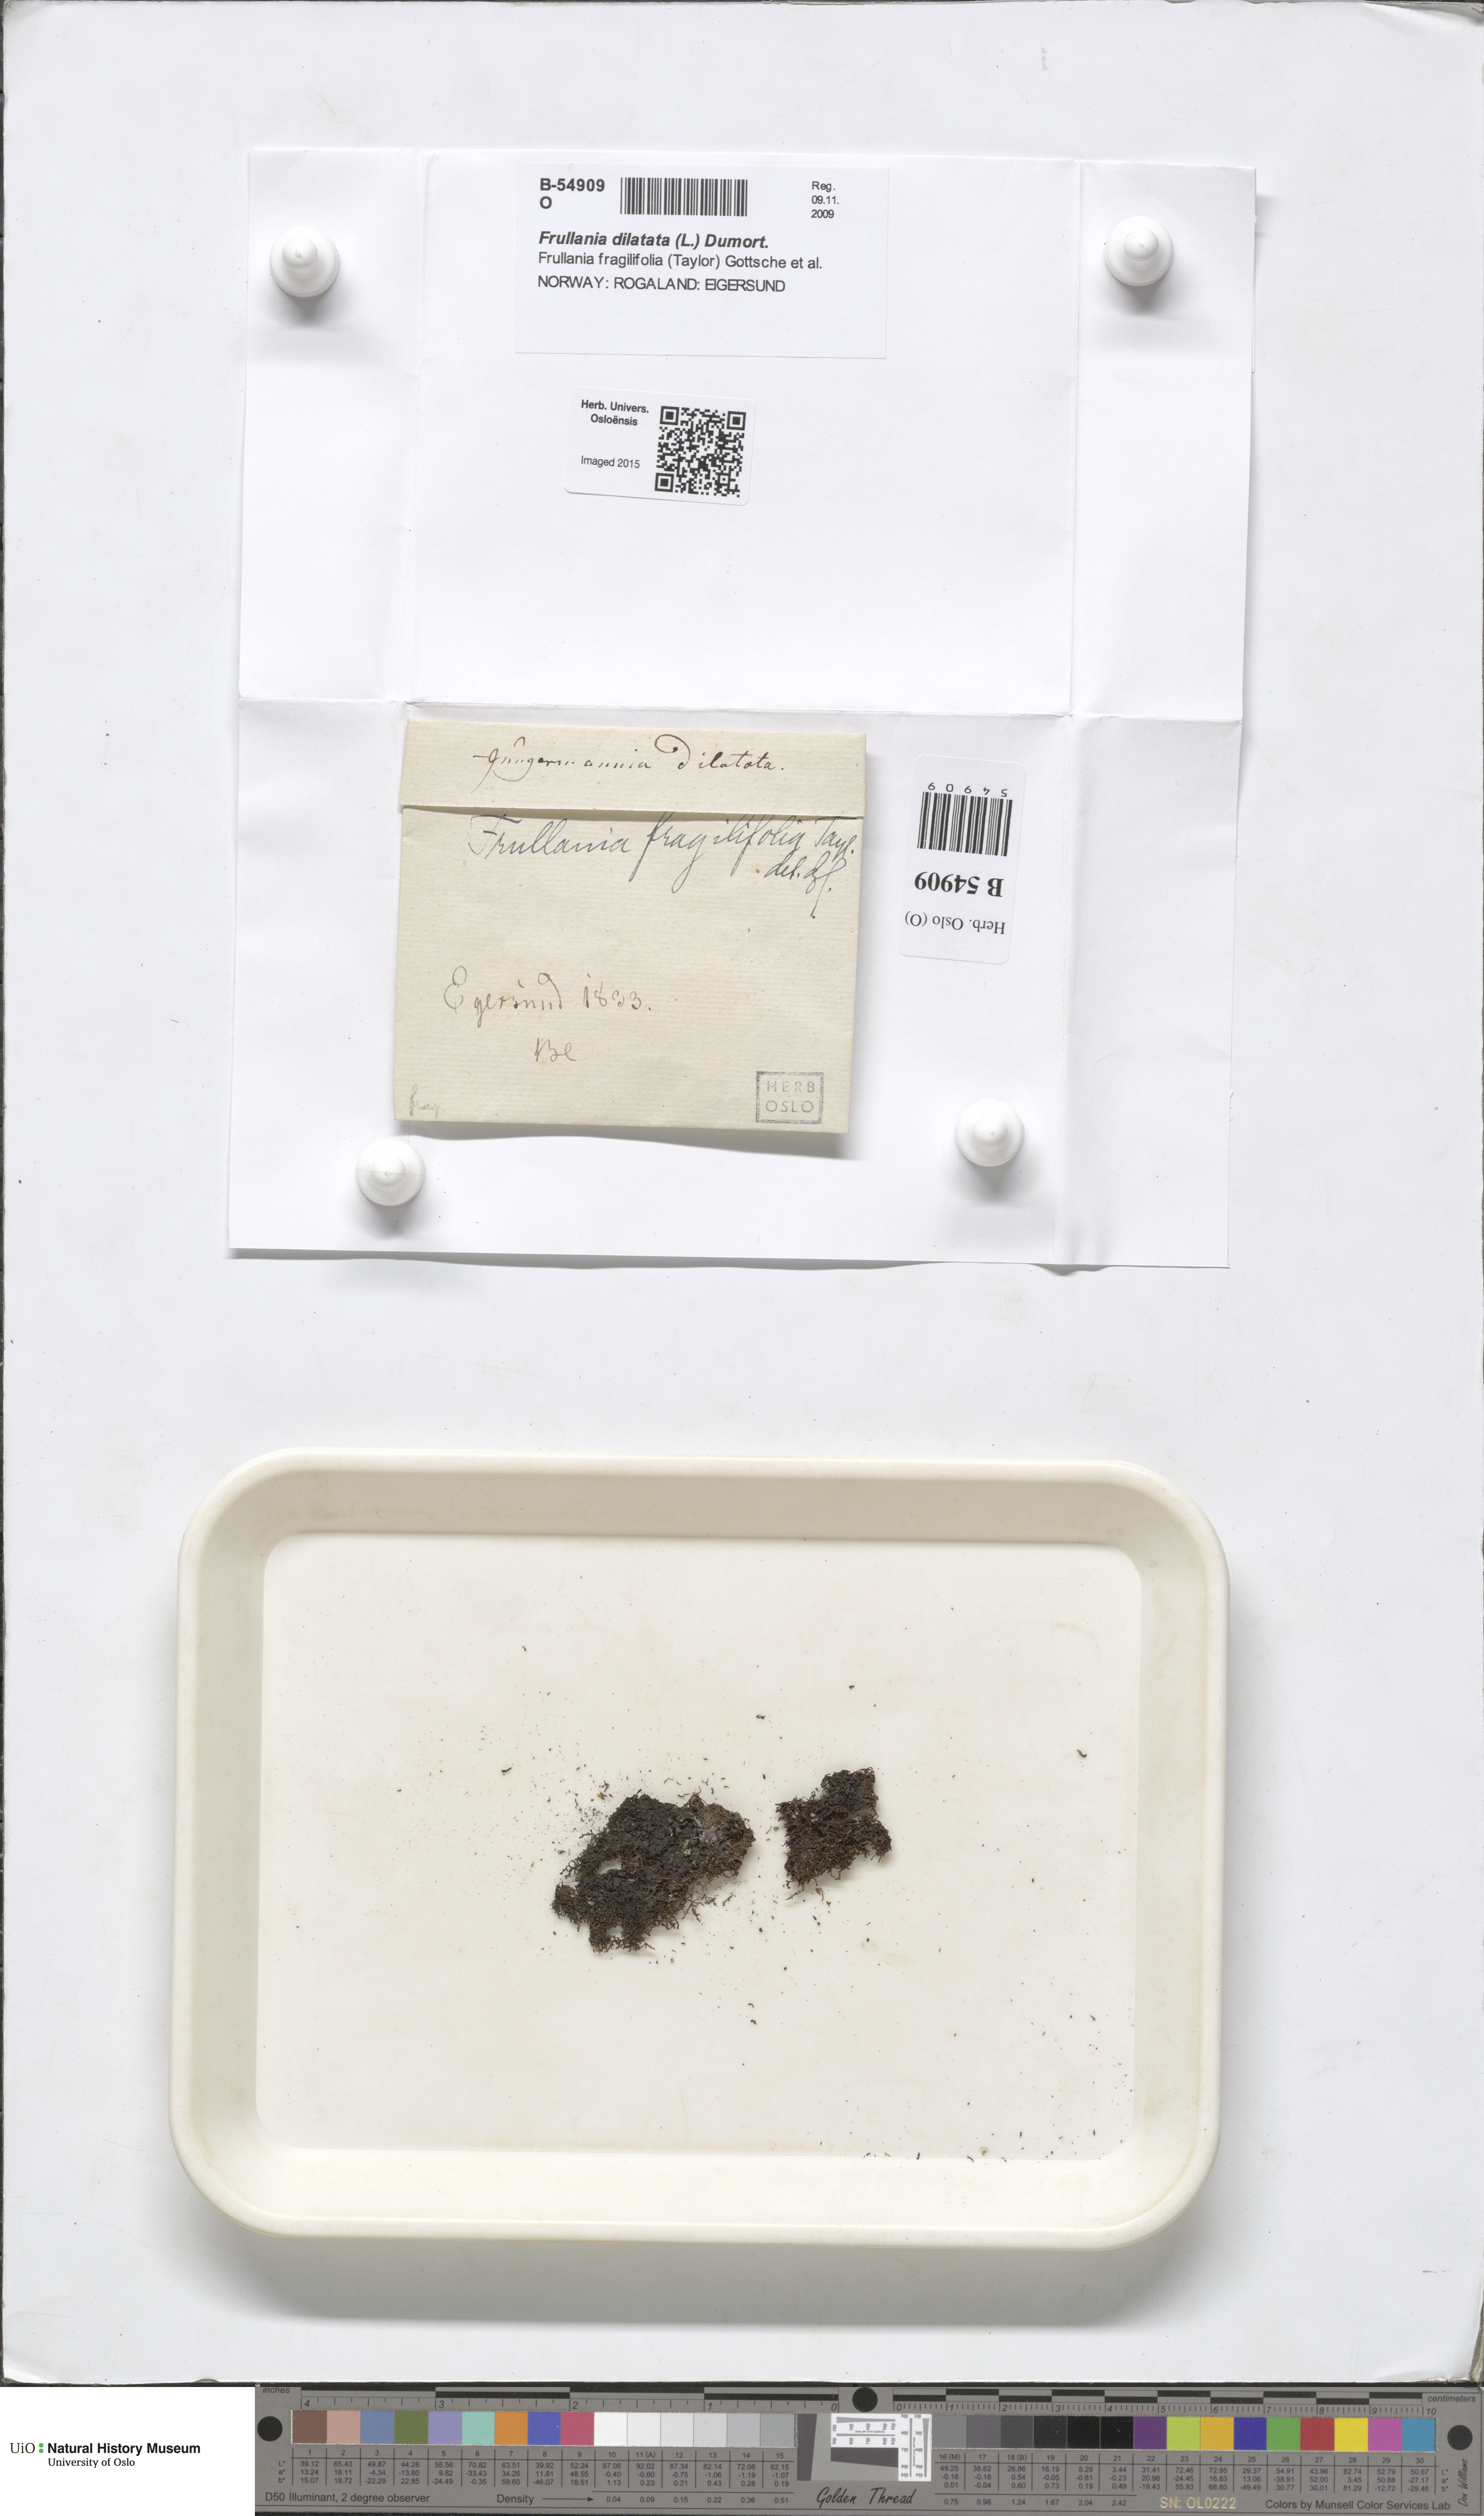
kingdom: Plantae
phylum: Marchantiophyta
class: Jungermanniopsida
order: Porellales
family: Frullaniaceae
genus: Frullania
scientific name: Frullania fragilifolia
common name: Spotty scalewort
